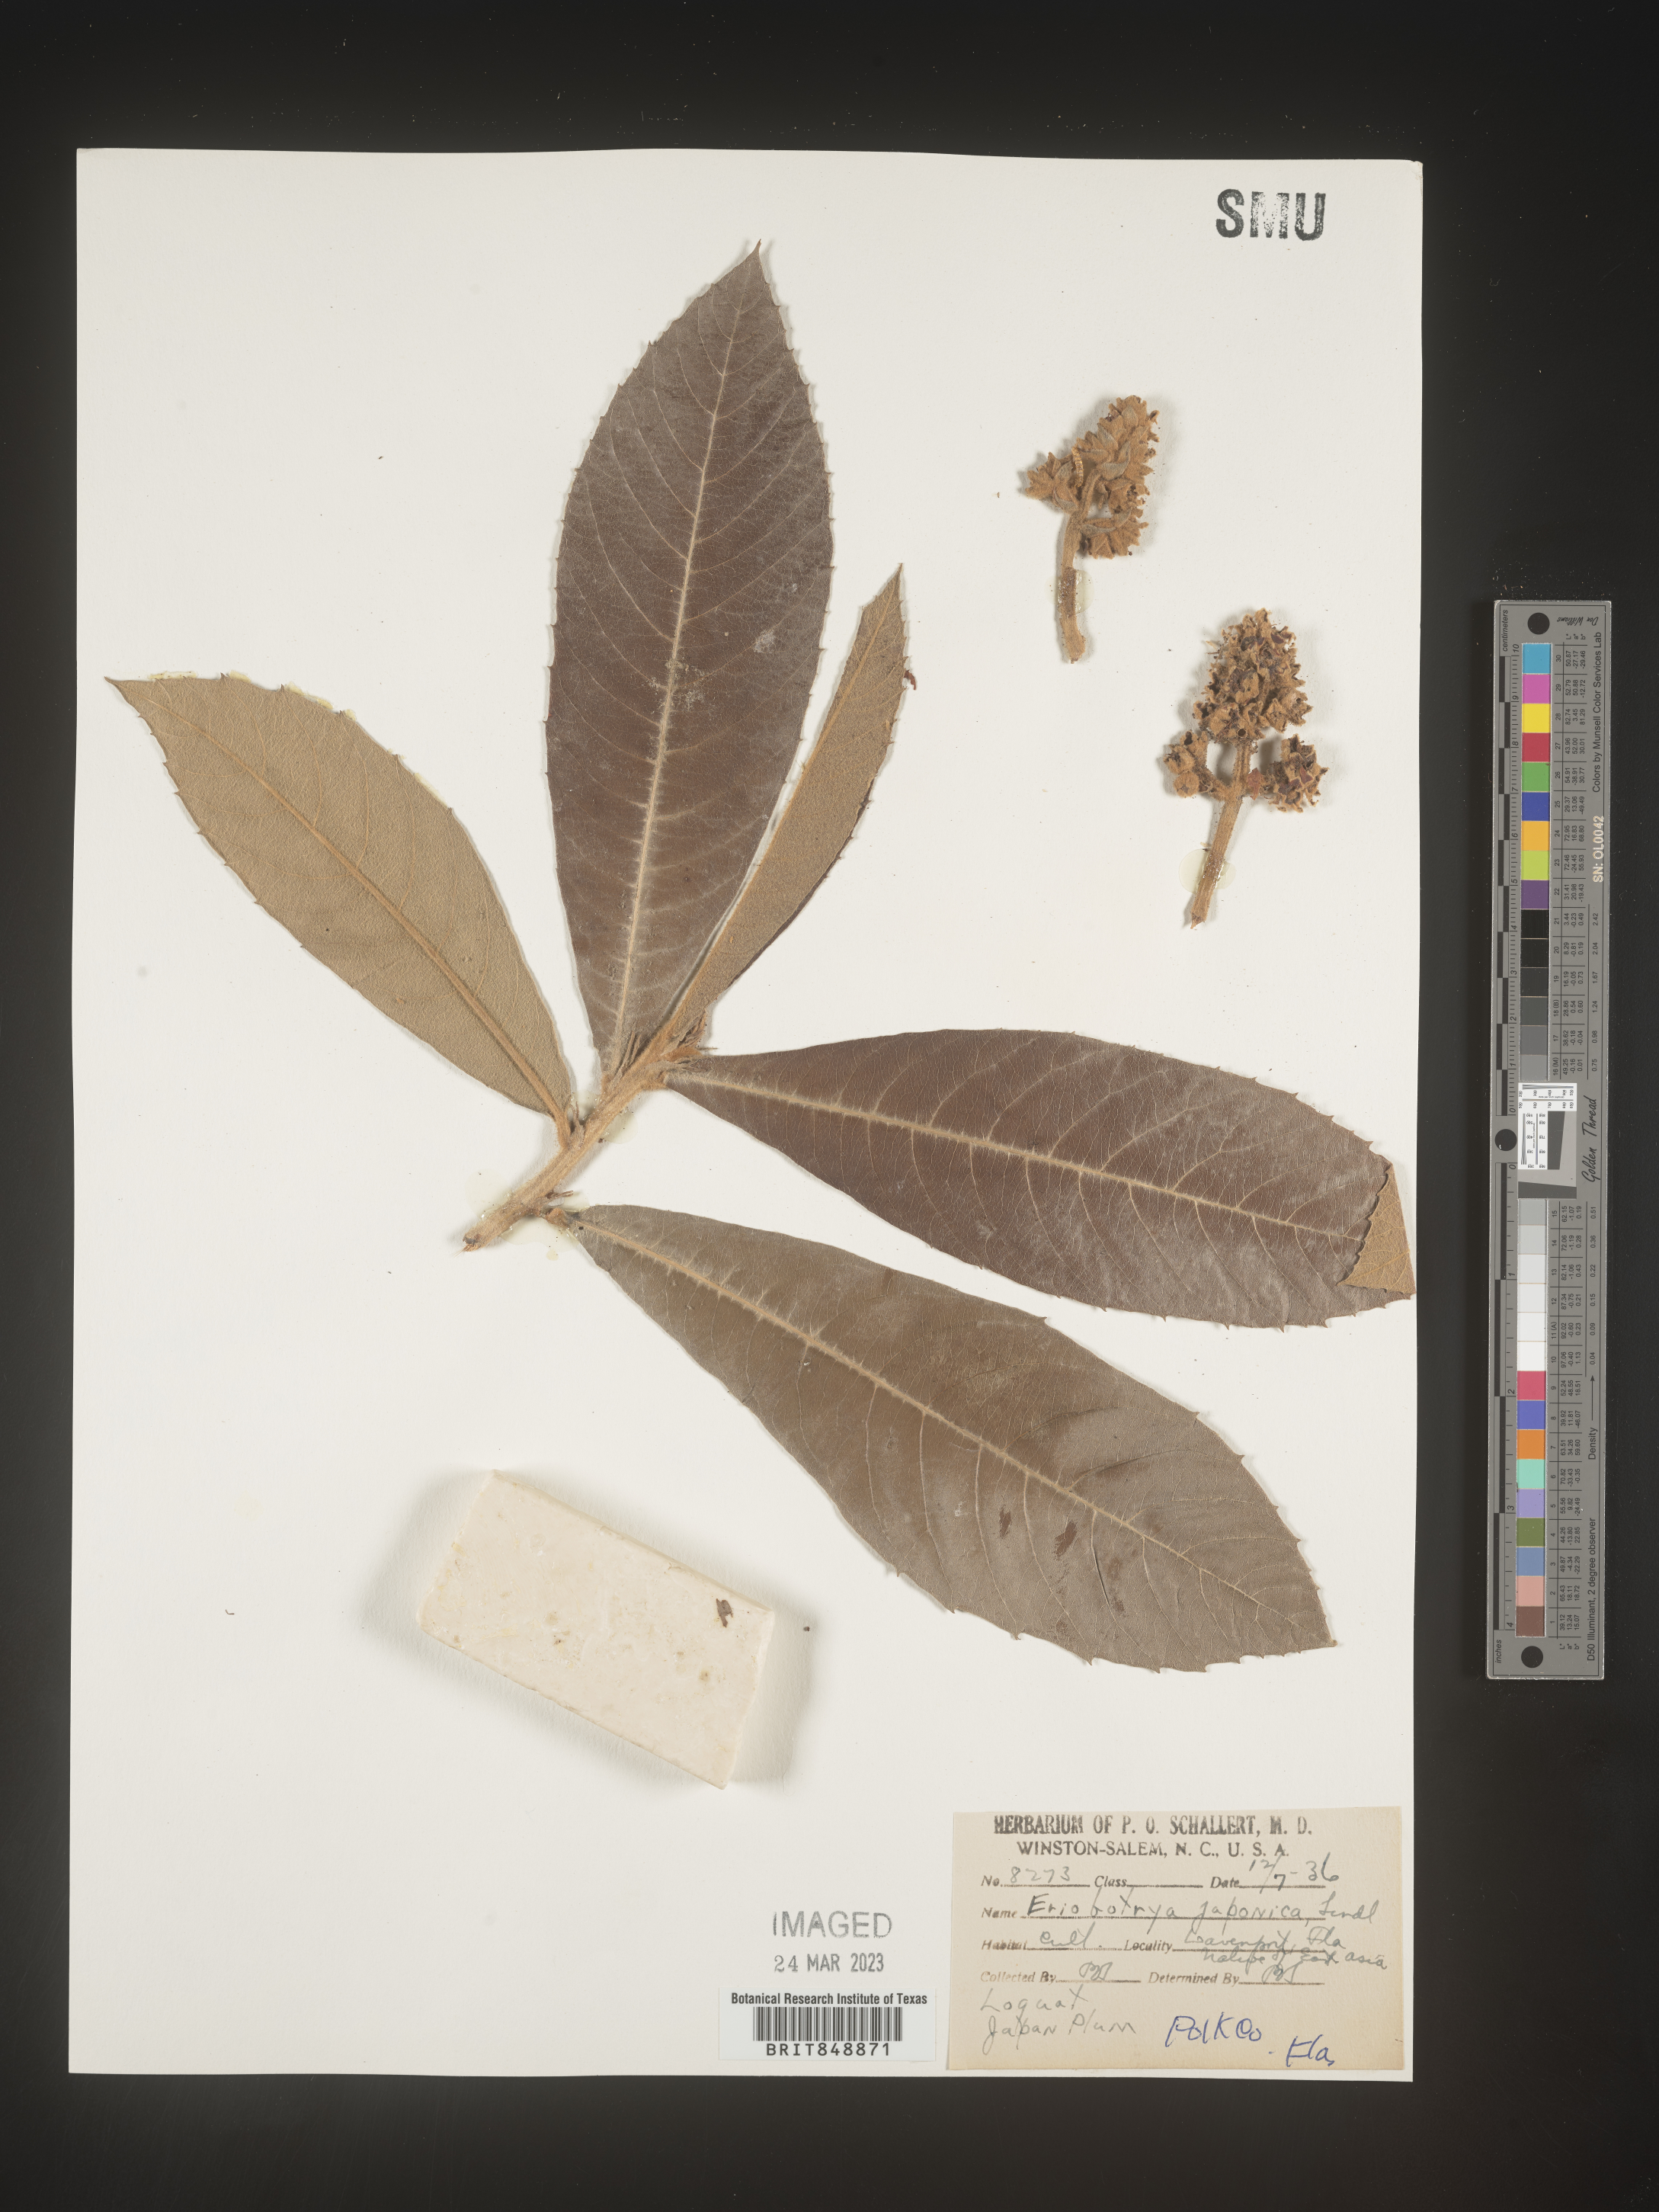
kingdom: Plantae
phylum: Tracheophyta
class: Magnoliopsida
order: Rosales
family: Rosaceae
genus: Rhaphiolepis
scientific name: Rhaphiolepis
